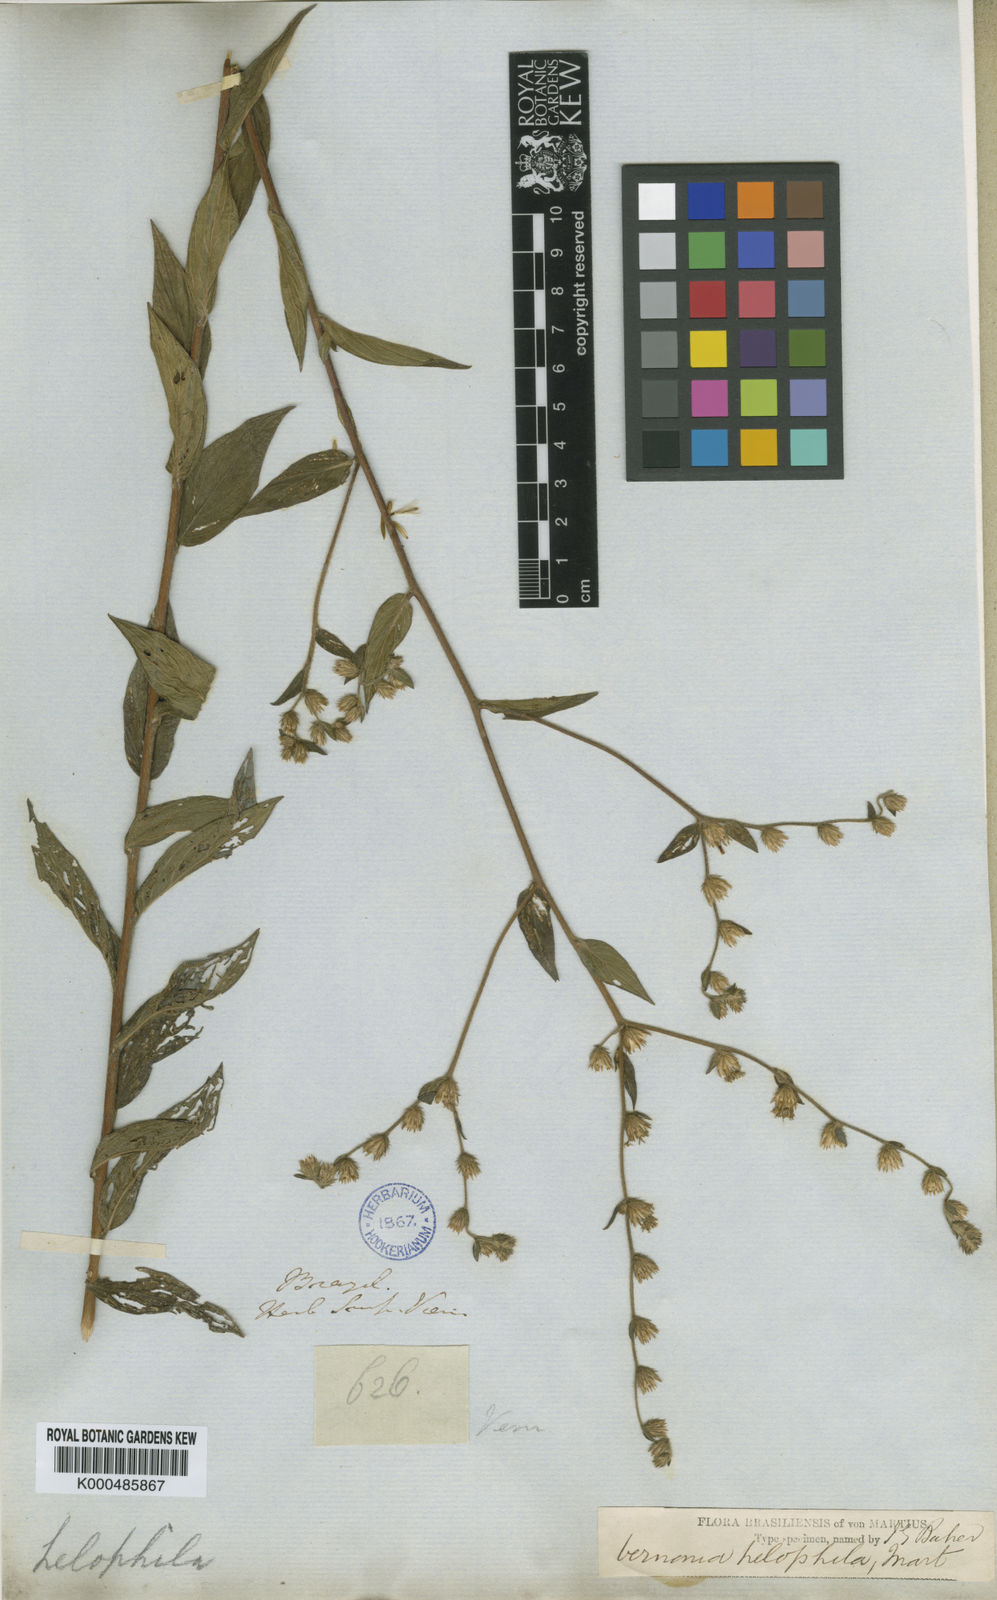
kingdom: Plantae
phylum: Tracheophyta
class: Magnoliopsida
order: Asterales
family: Asteraceae
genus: Lepidaploa
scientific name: Lepidaploa helophila
